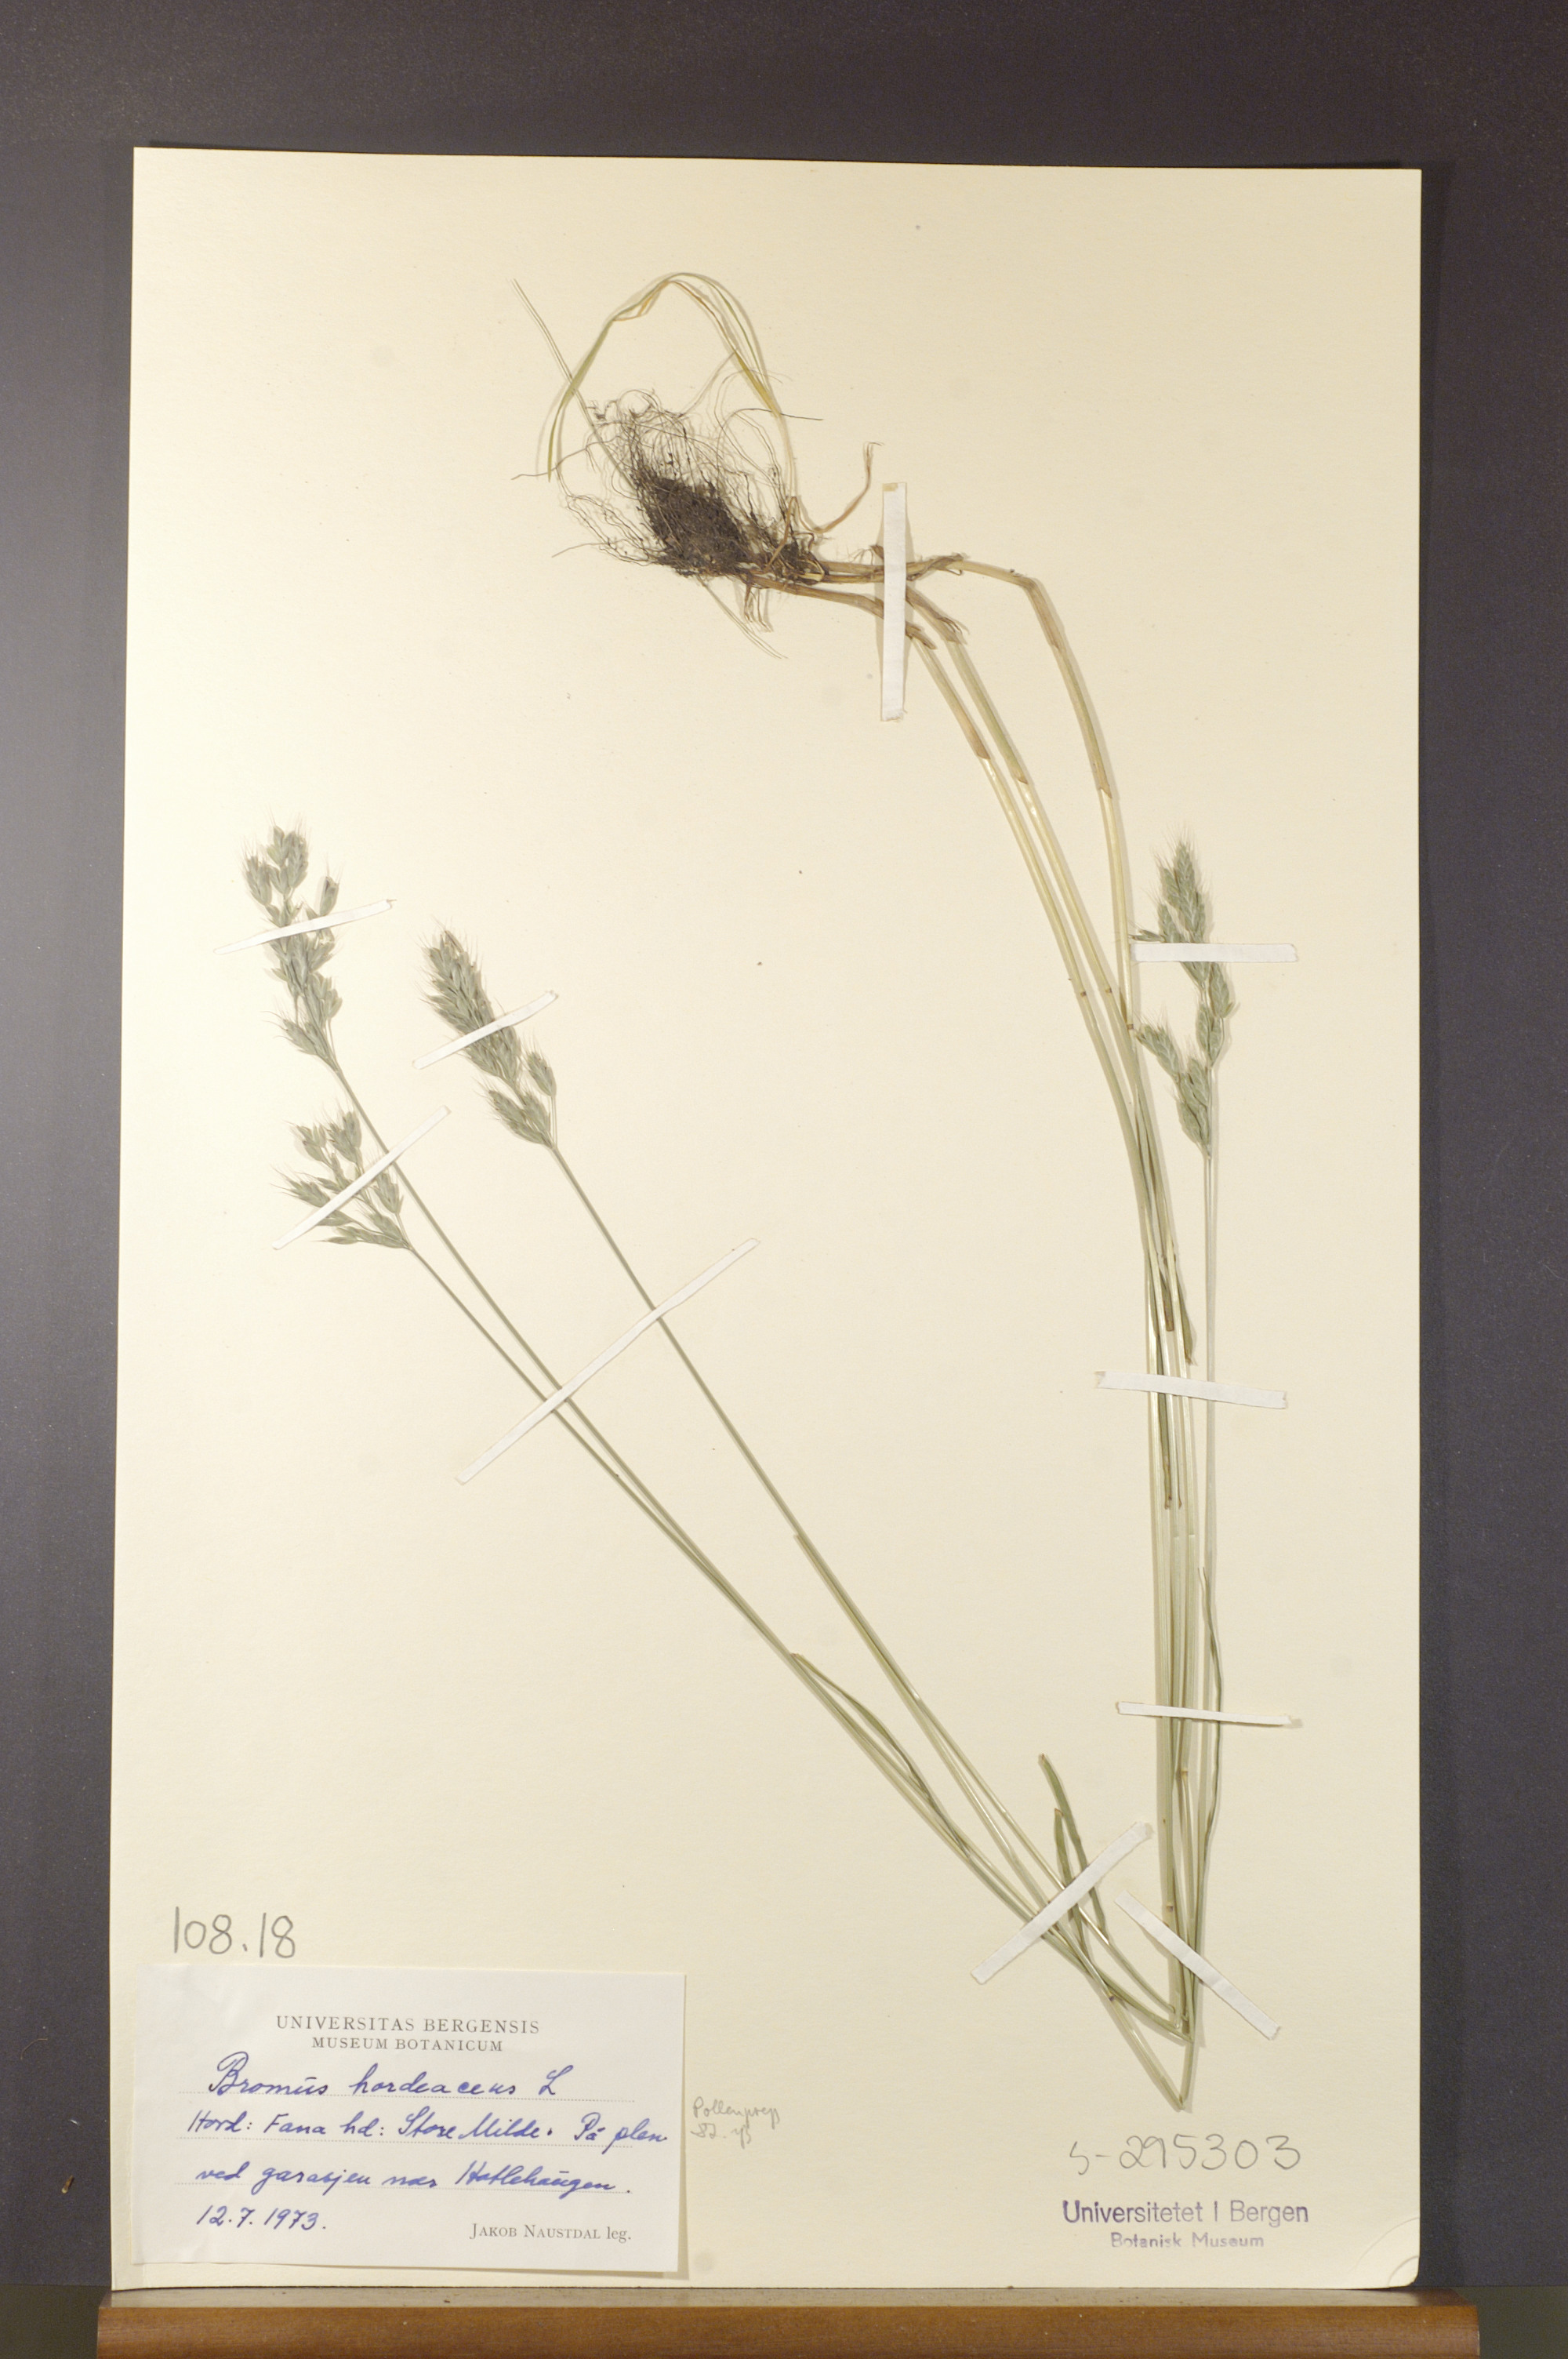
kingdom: Plantae
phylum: Tracheophyta
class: Liliopsida
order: Poales
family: Poaceae
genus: Bromus
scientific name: Bromus hordeaceus
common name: Soft brome
